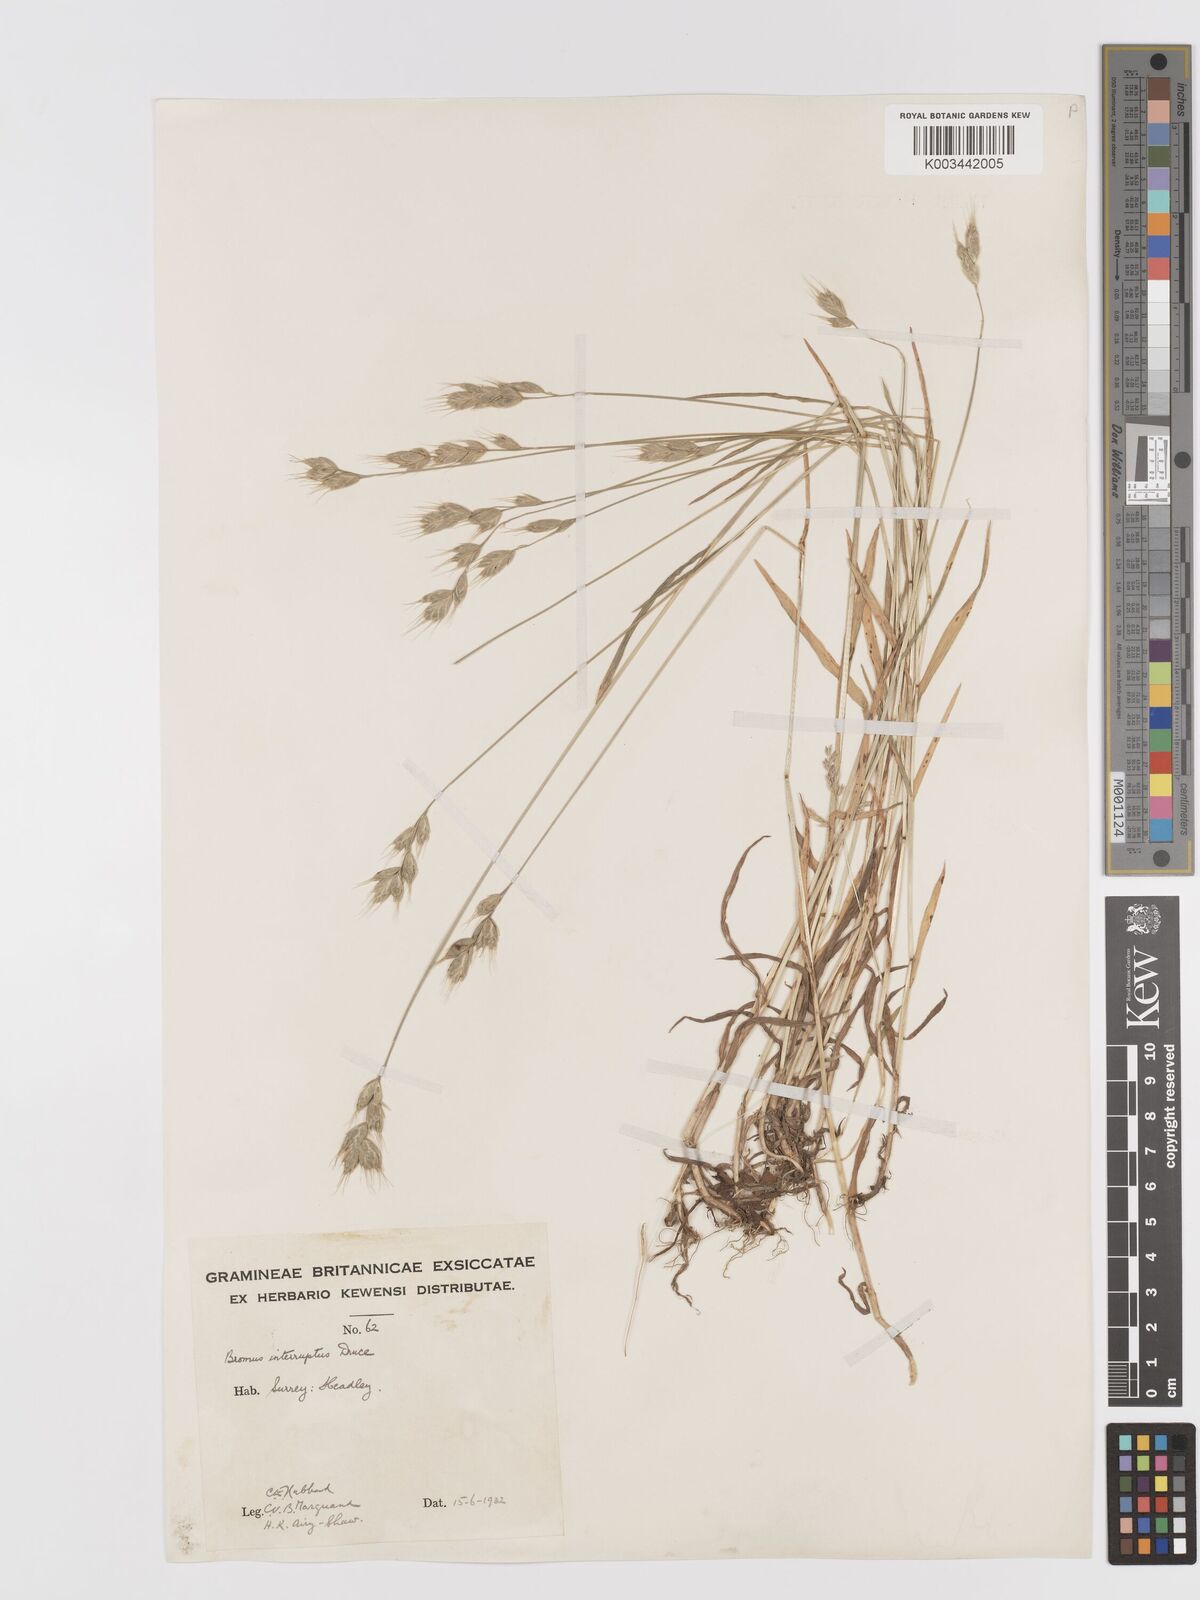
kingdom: Plantae
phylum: Tracheophyta
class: Liliopsida
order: Poales
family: Poaceae
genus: Bromus
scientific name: Bromus interruptus
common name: Interrupted brome
